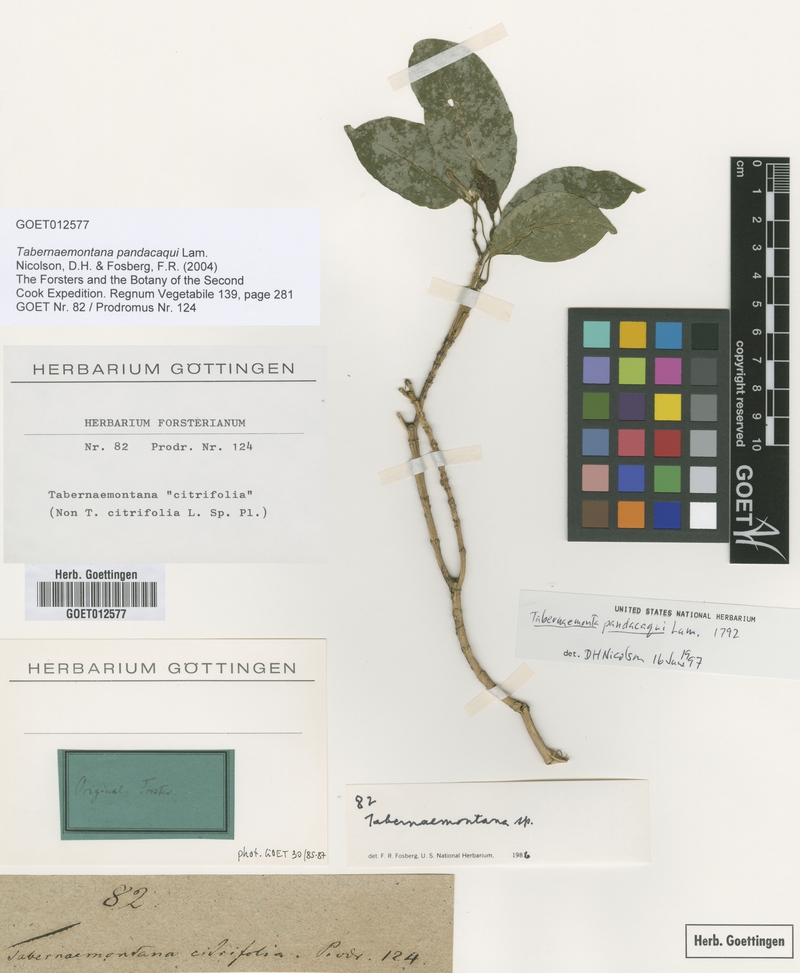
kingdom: Plantae
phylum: Tracheophyta
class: Magnoliopsida
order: Gentianales
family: Apocynaceae
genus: Tabernaemontana
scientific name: Tabernaemontana pandacaqui
